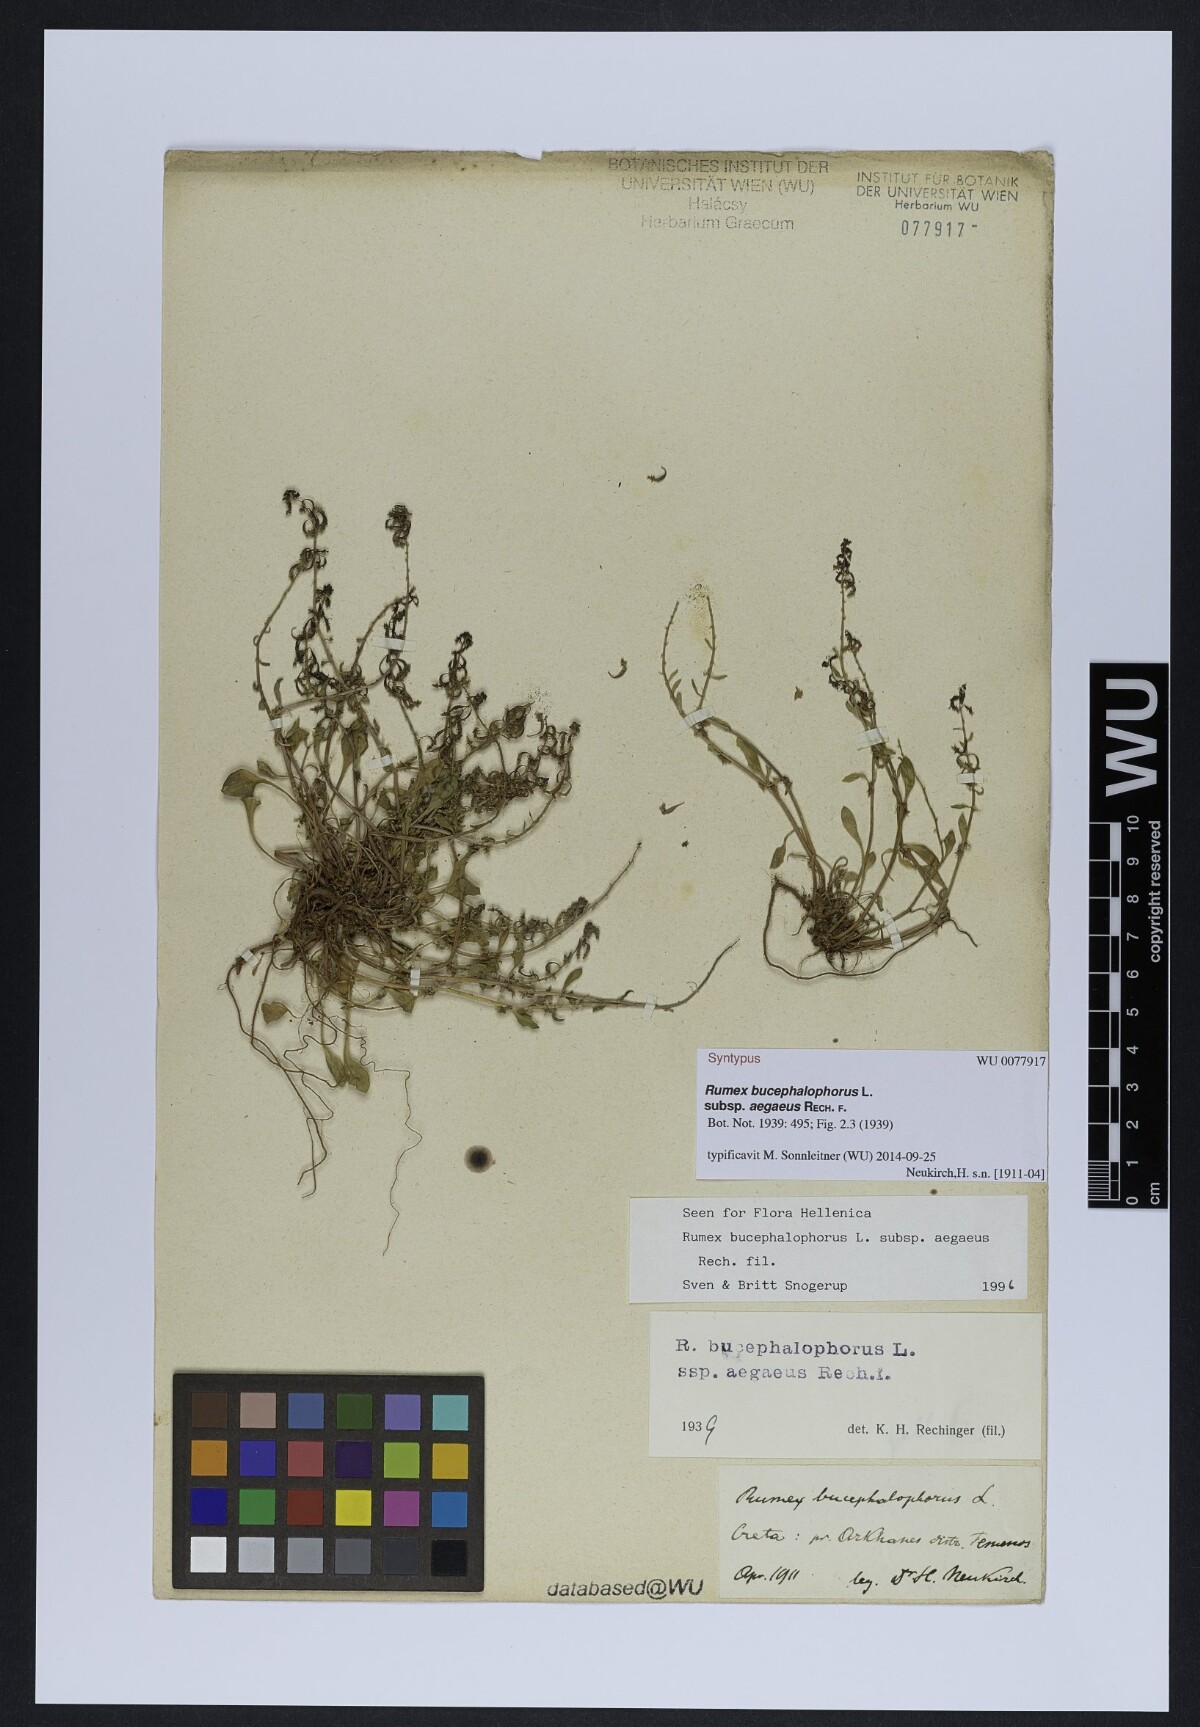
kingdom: Plantae
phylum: Tracheophyta
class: Magnoliopsida
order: Caryophyllales
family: Polygonaceae
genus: Rumex
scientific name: Rumex bucephalophorus
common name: Red dock
